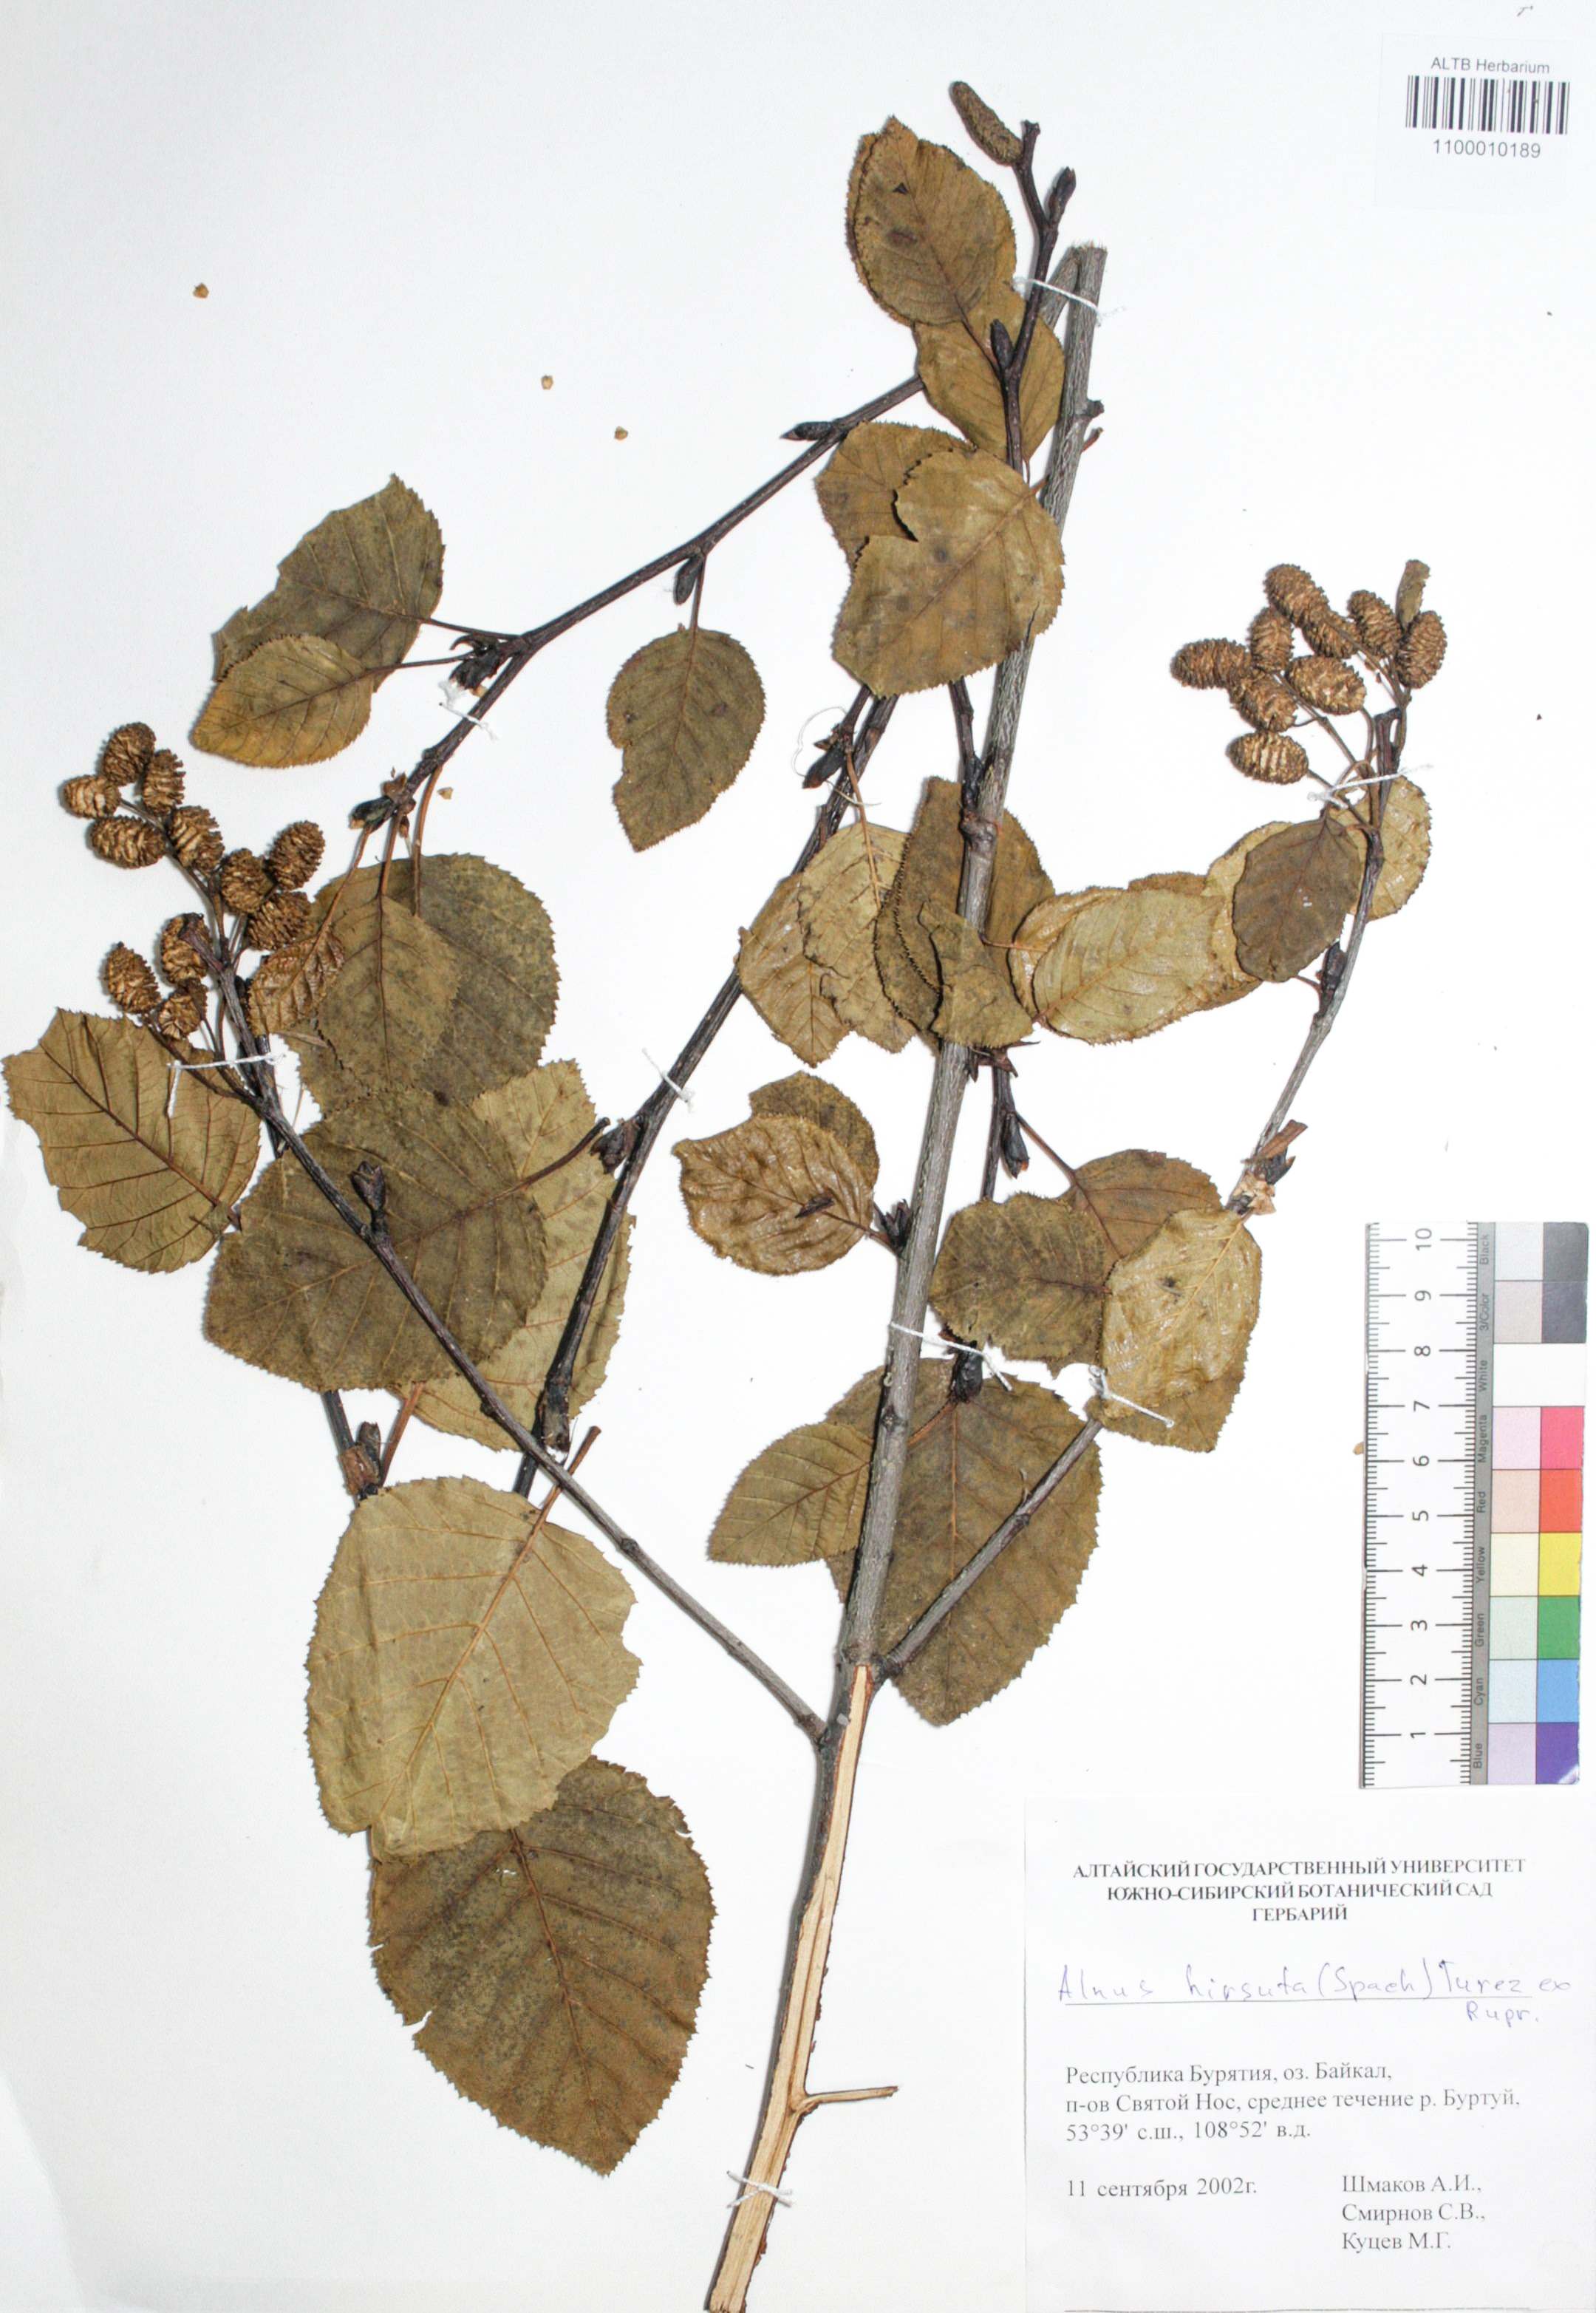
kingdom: Plantae
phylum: Tracheophyta
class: Magnoliopsida
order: Fagales
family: Betulaceae
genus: Alnus
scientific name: Alnus hirsuta
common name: Manchurian alder
